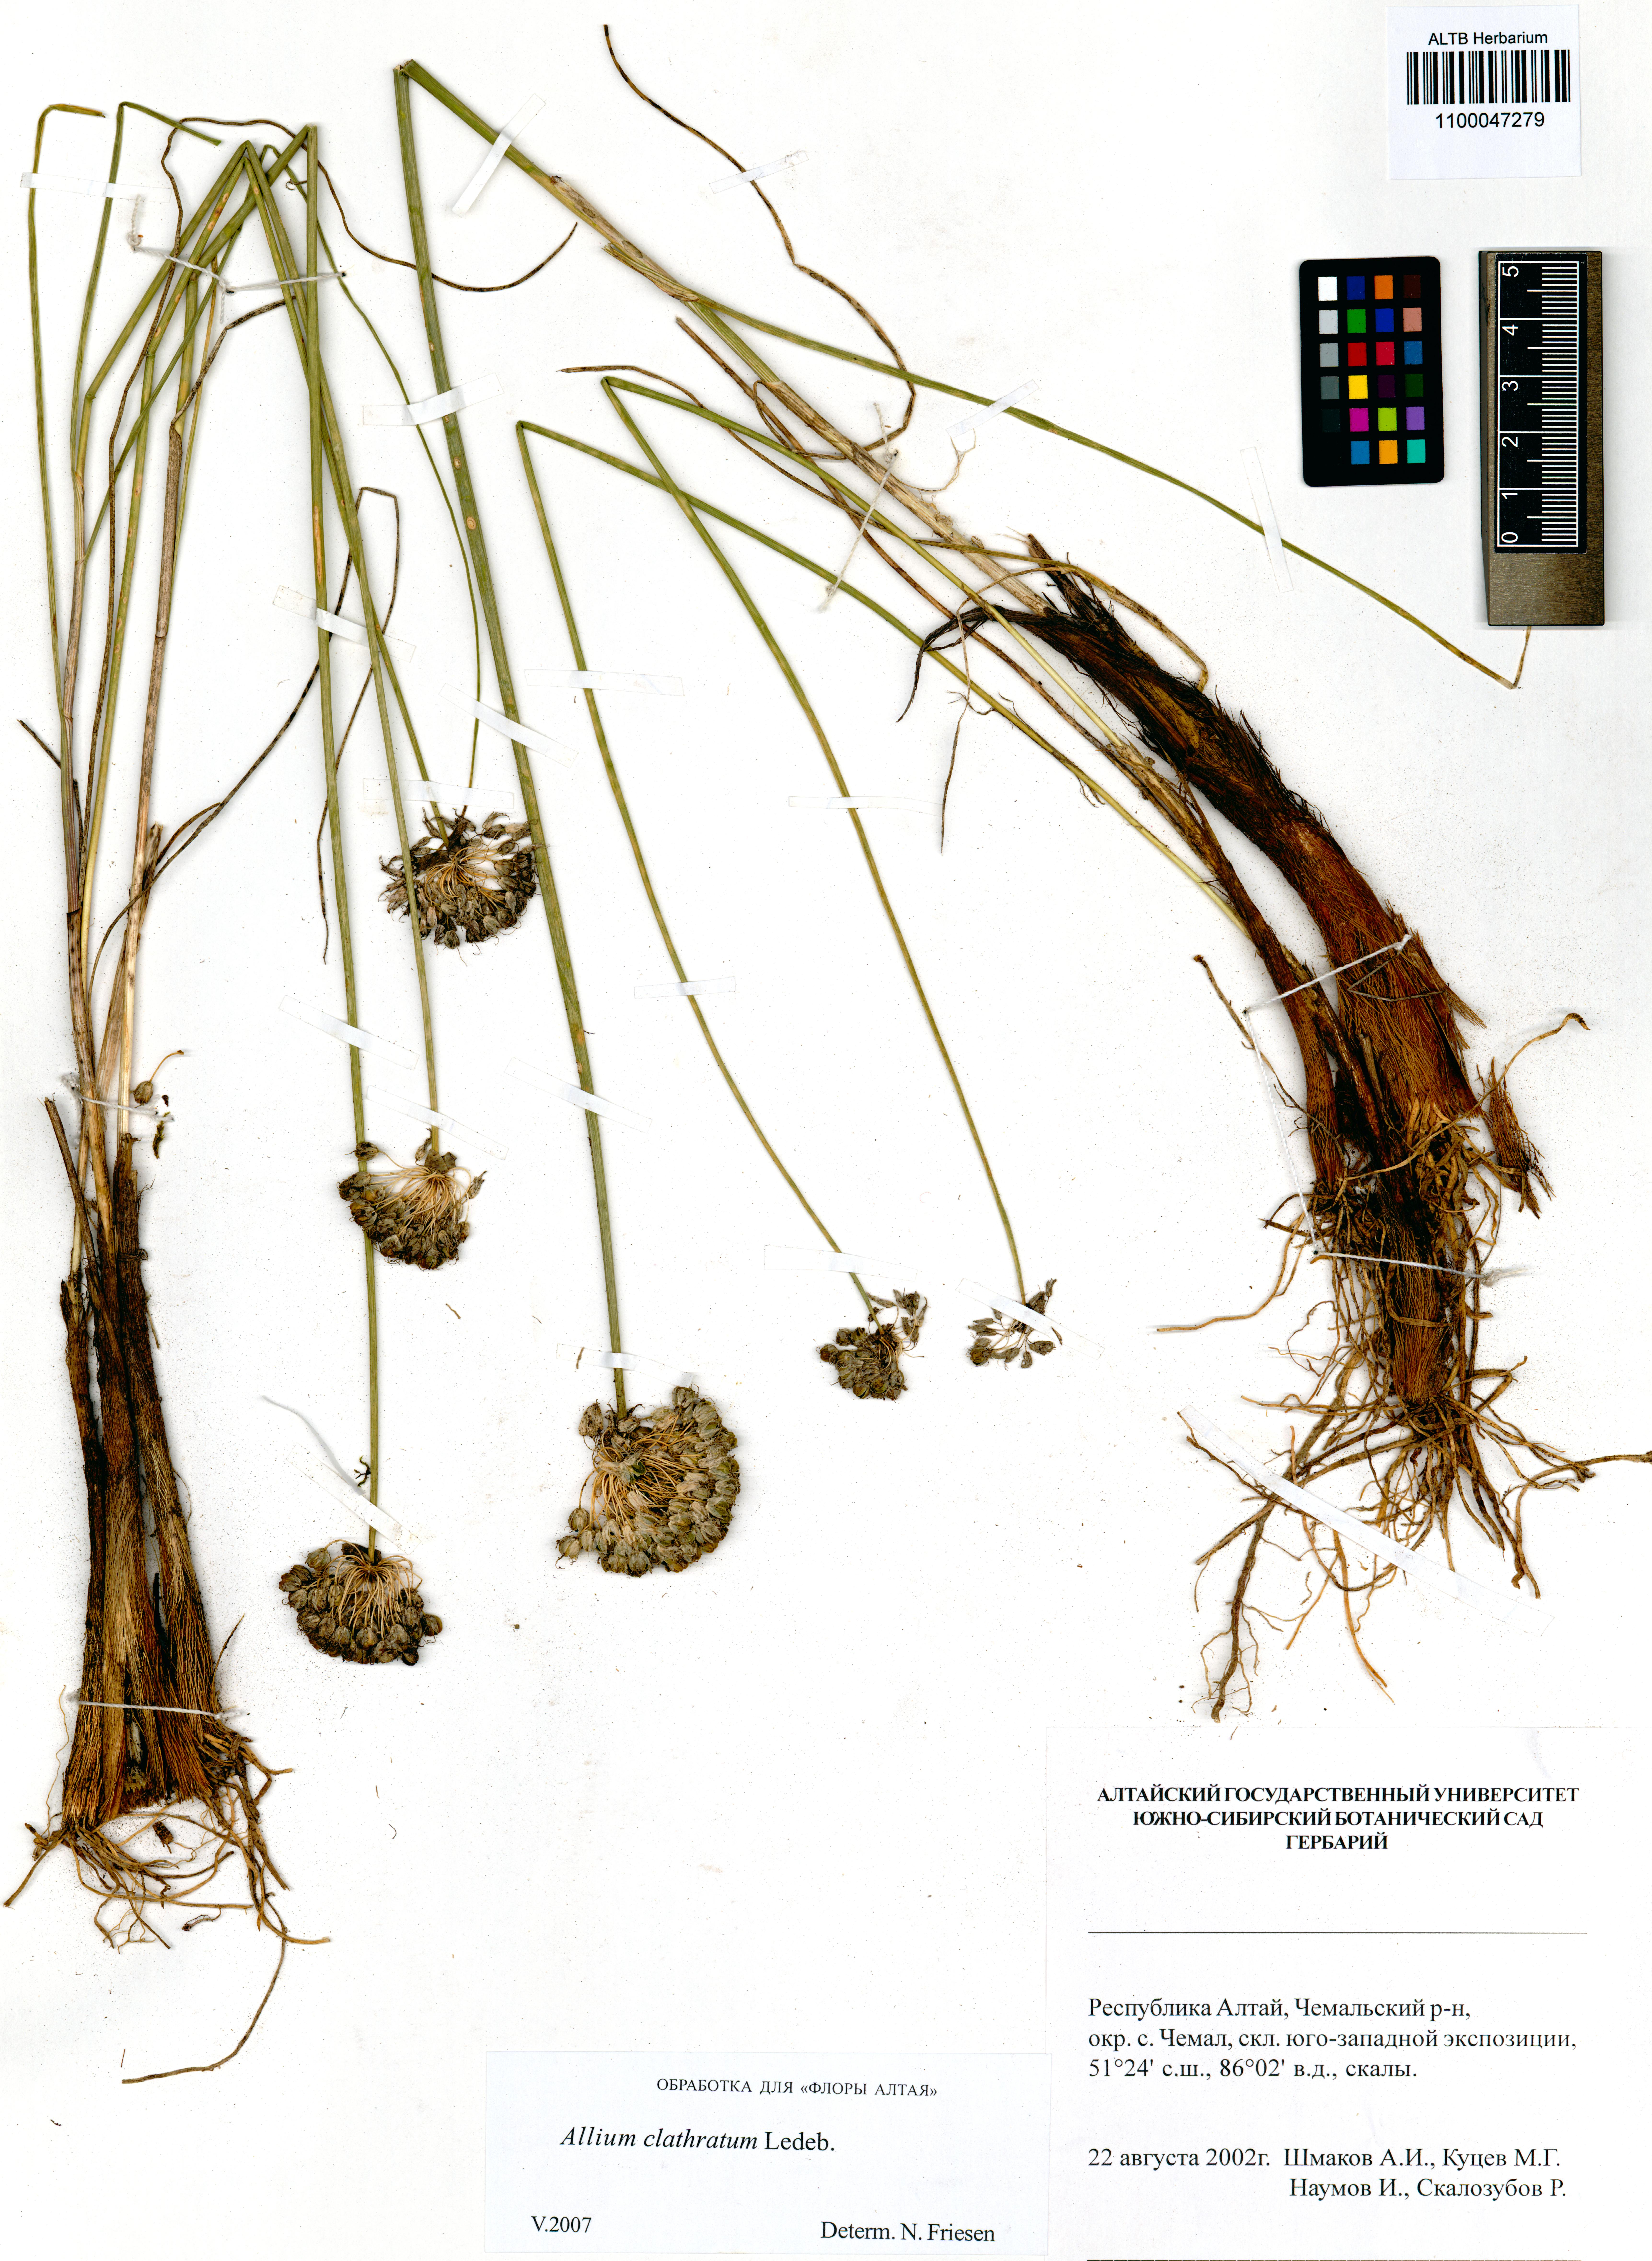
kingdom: Plantae
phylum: Tracheophyta
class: Liliopsida
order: Asparagales
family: Amaryllidaceae
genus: Allium
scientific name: Allium clathratum
